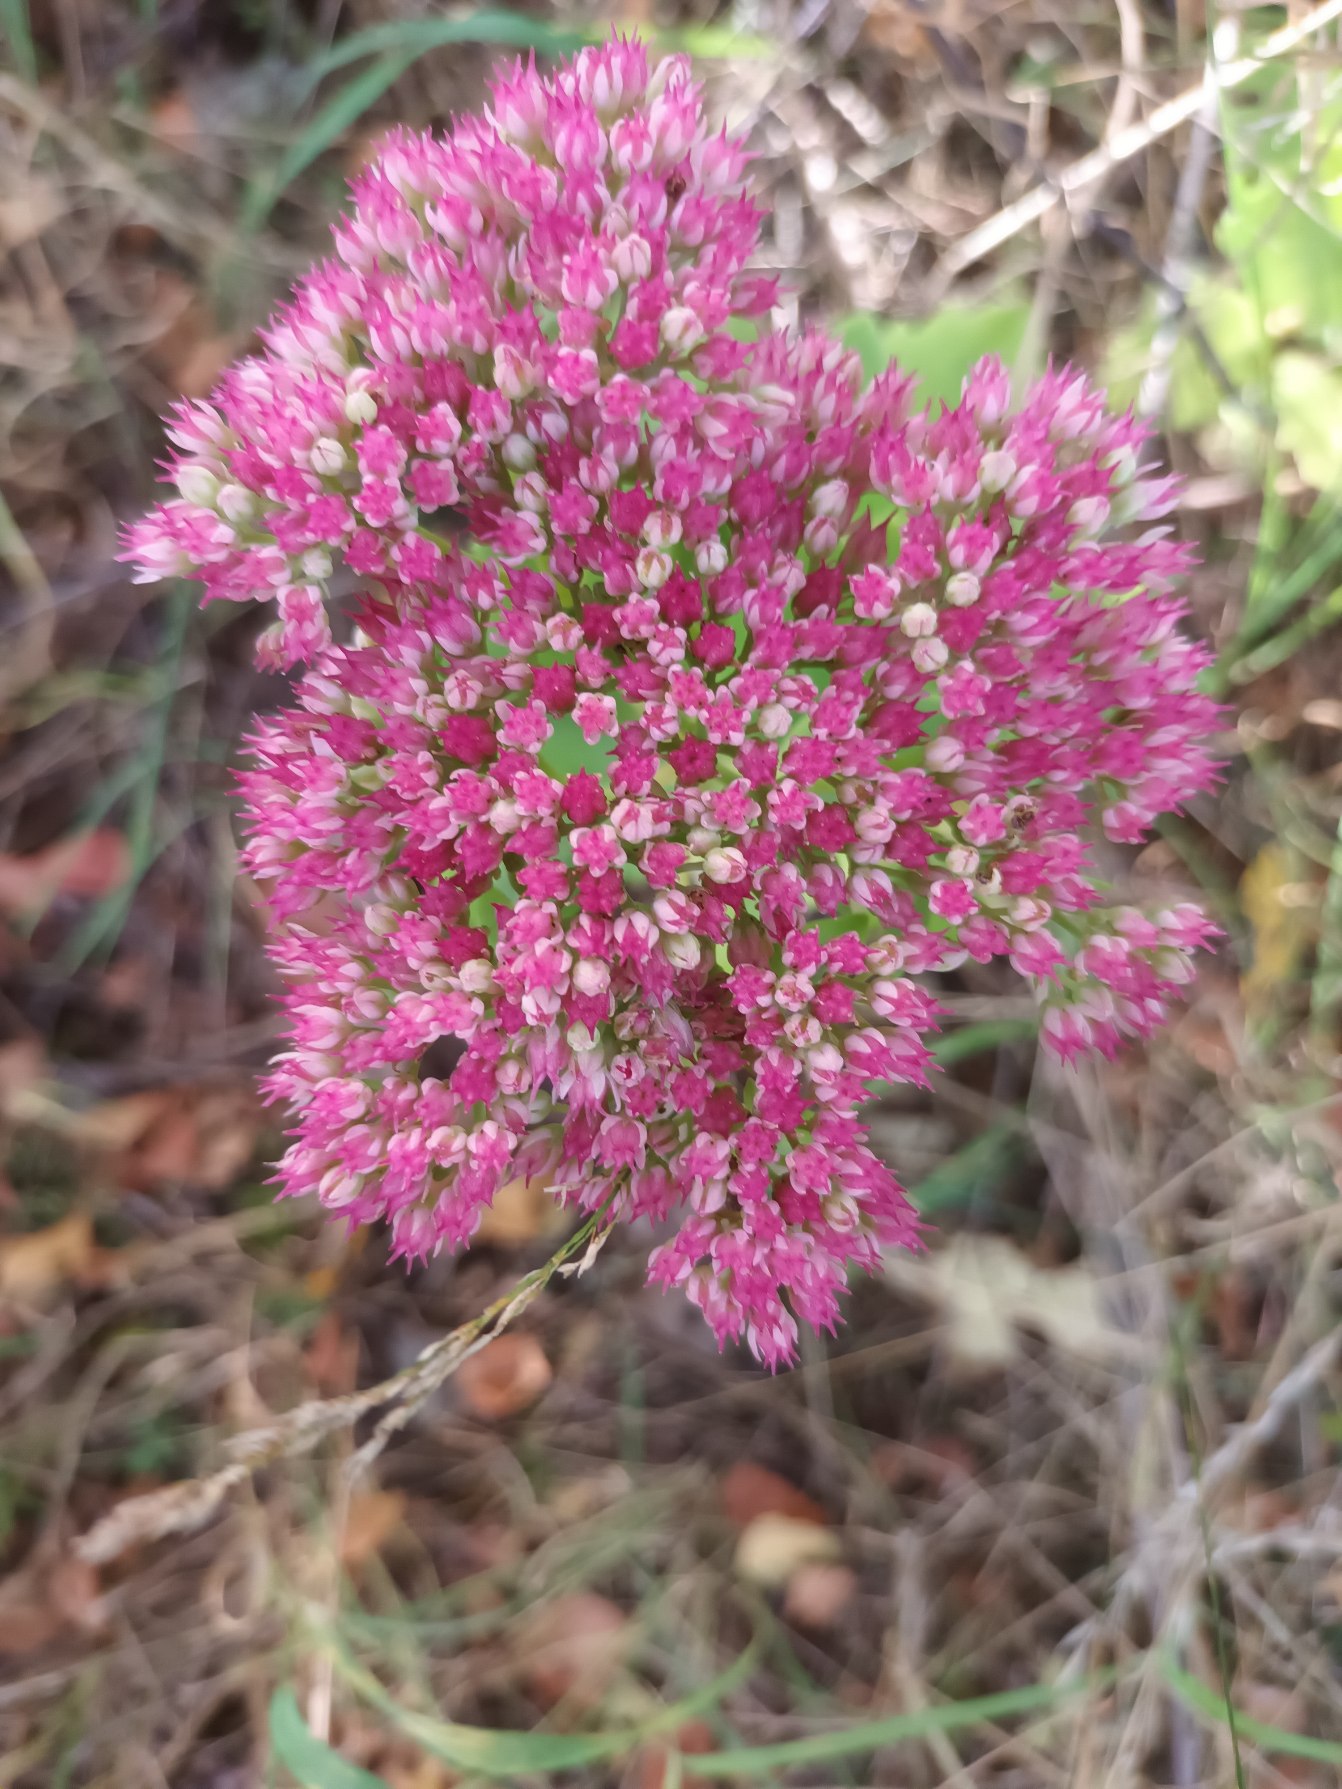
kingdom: Plantae
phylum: Tracheophyta
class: Magnoliopsida
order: Saxifragales
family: Crassulaceae
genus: Hylotelephium
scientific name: Hylotelephium
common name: Kinesisk sankthansurt × sankthansurt
